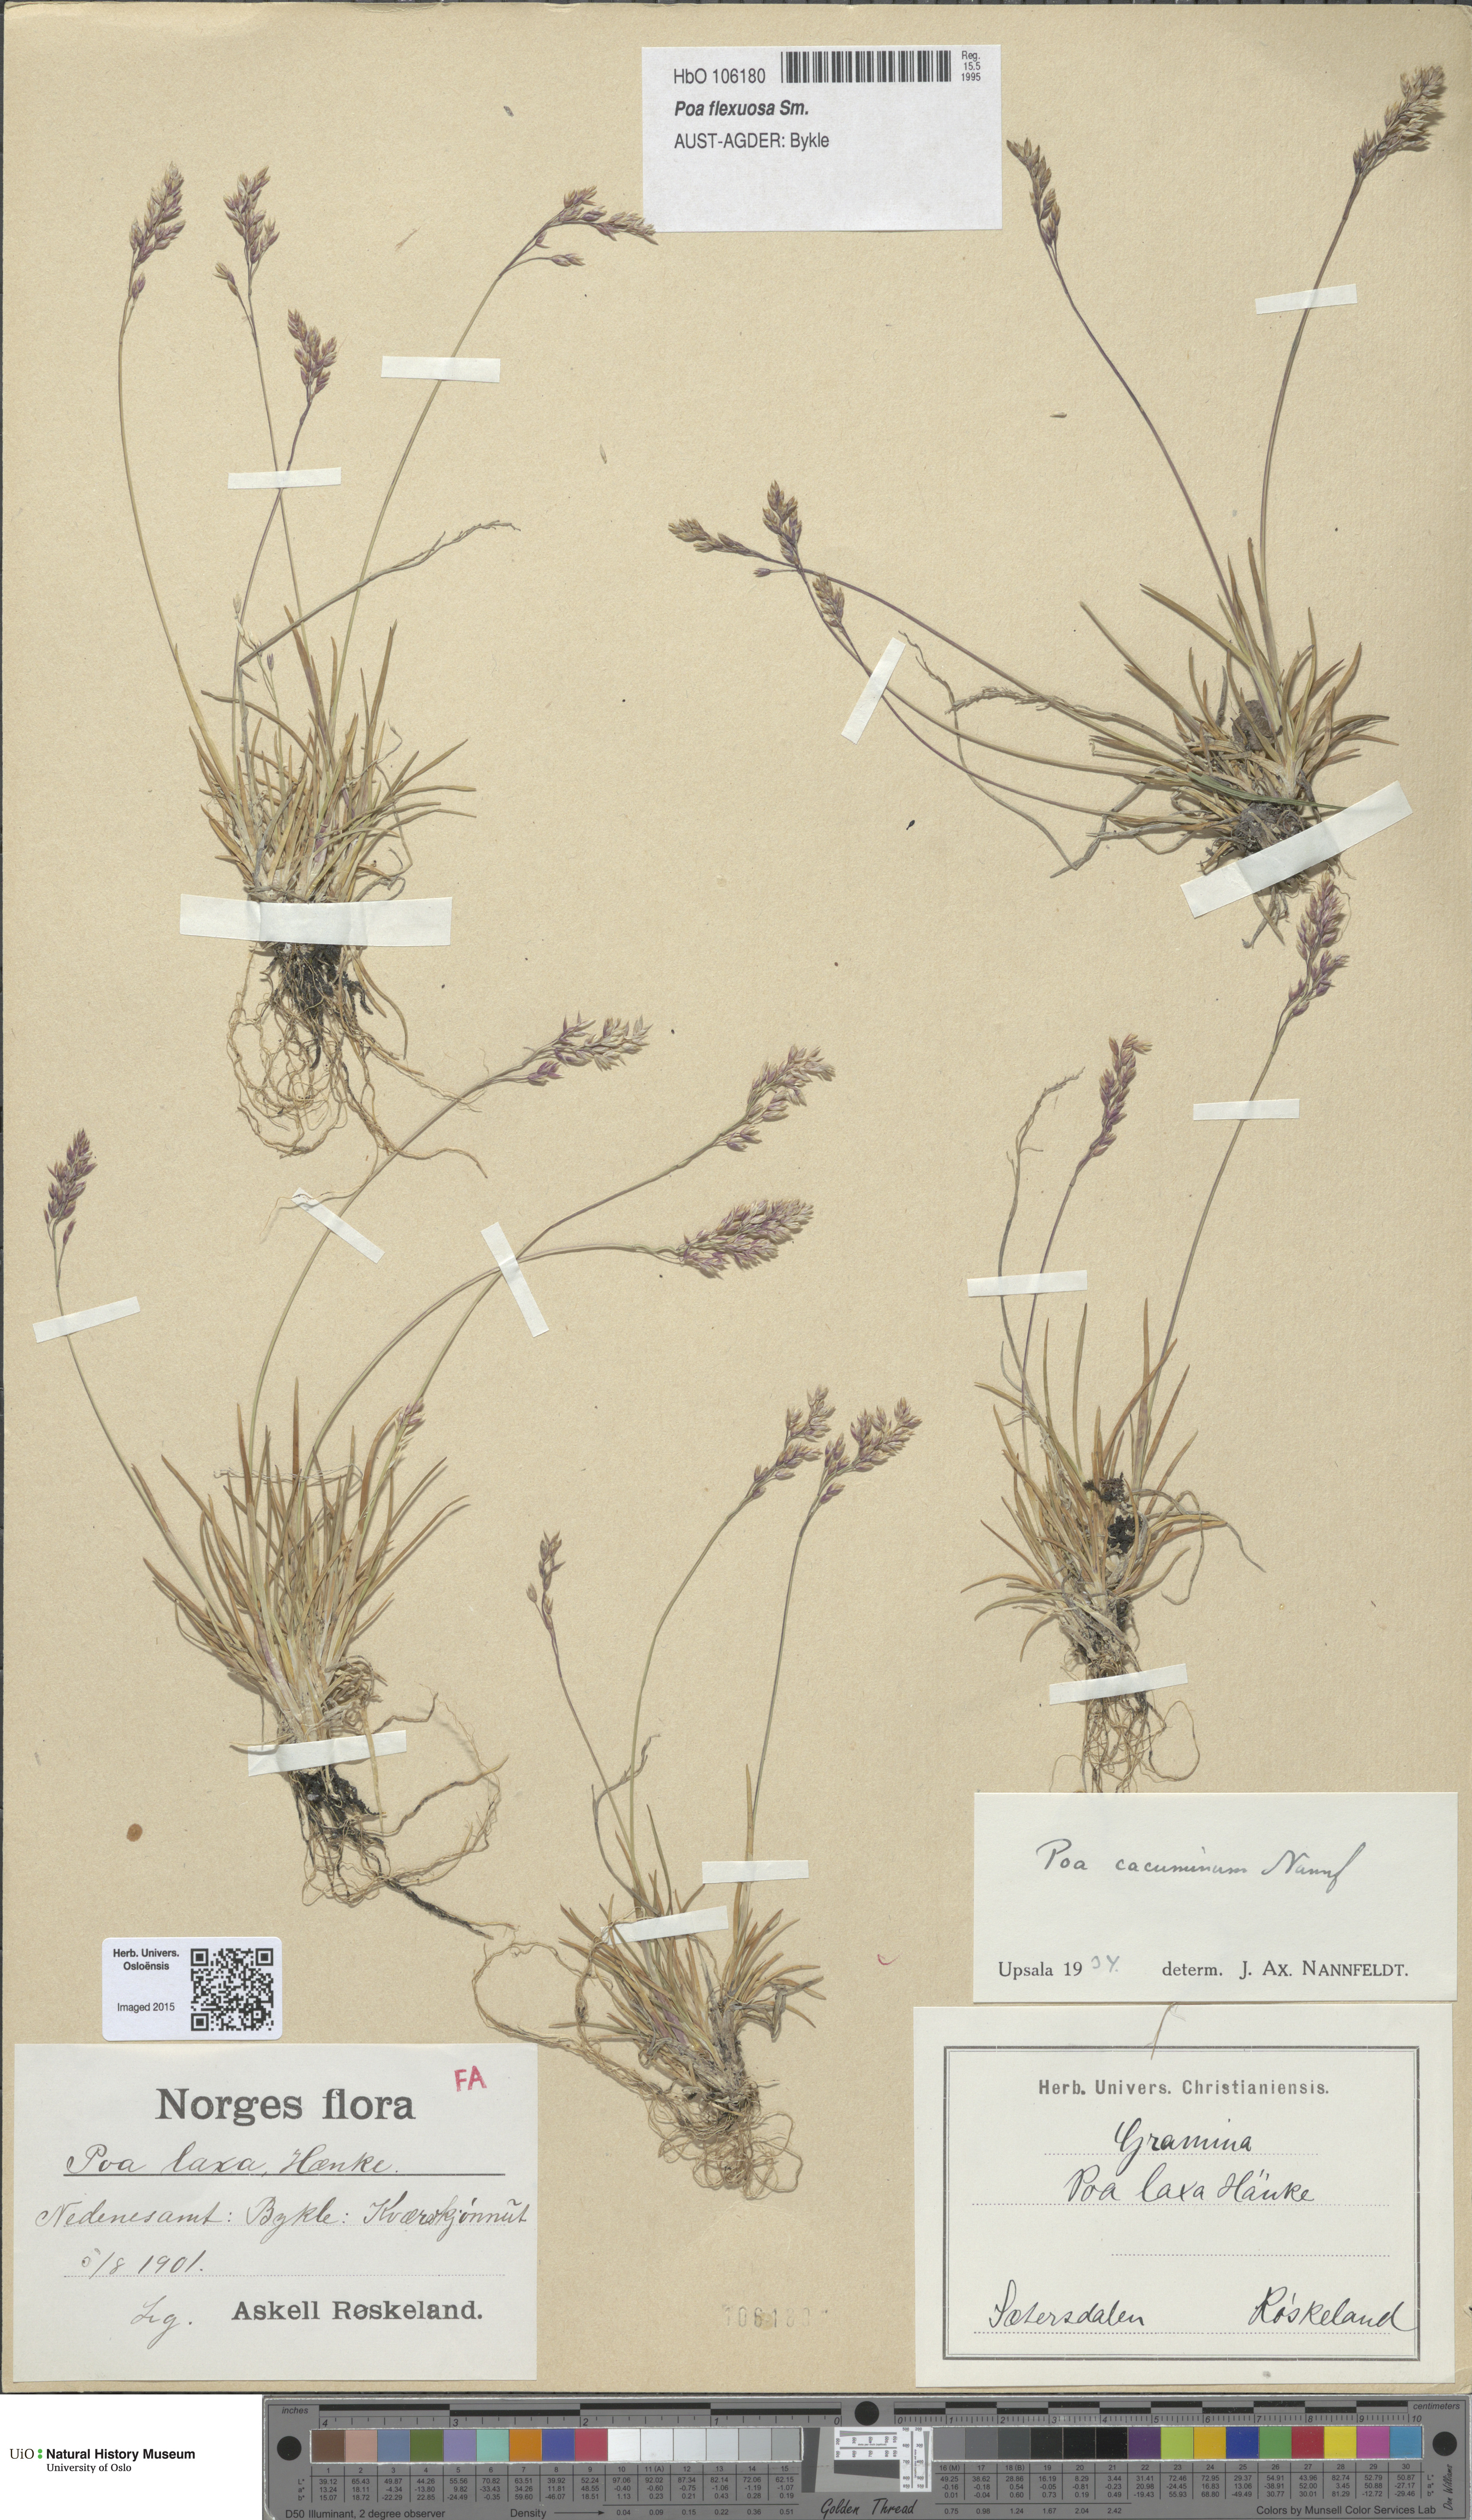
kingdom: Plantae
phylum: Tracheophyta
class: Liliopsida
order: Poales
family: Poaceae
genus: Poa
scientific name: Poa flexuosa
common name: Wavy meadow-grass
